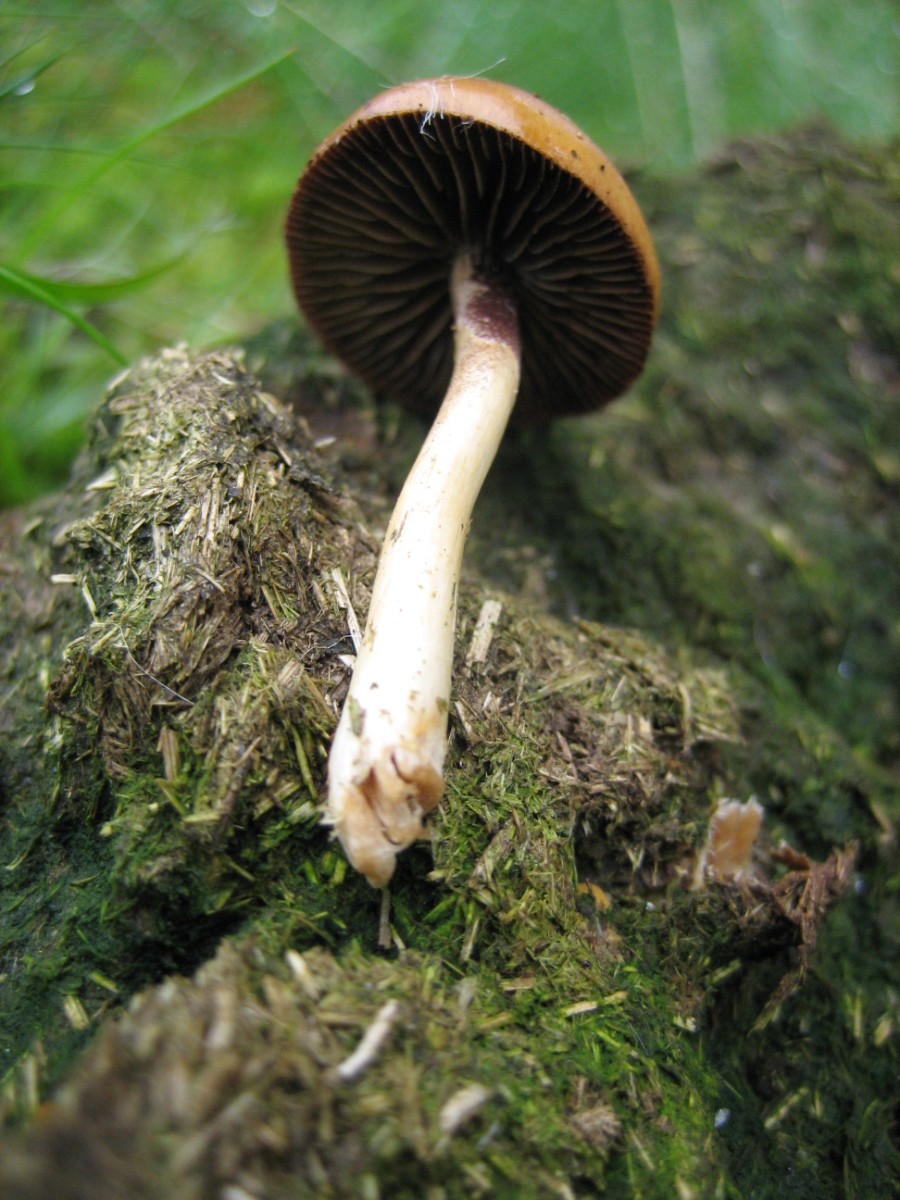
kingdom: Fungi
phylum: Basidiomycota
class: Agaricomycetes
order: Agaricales
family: Strophariaceae
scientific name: Strophariaceae
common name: bredbladfamilien
